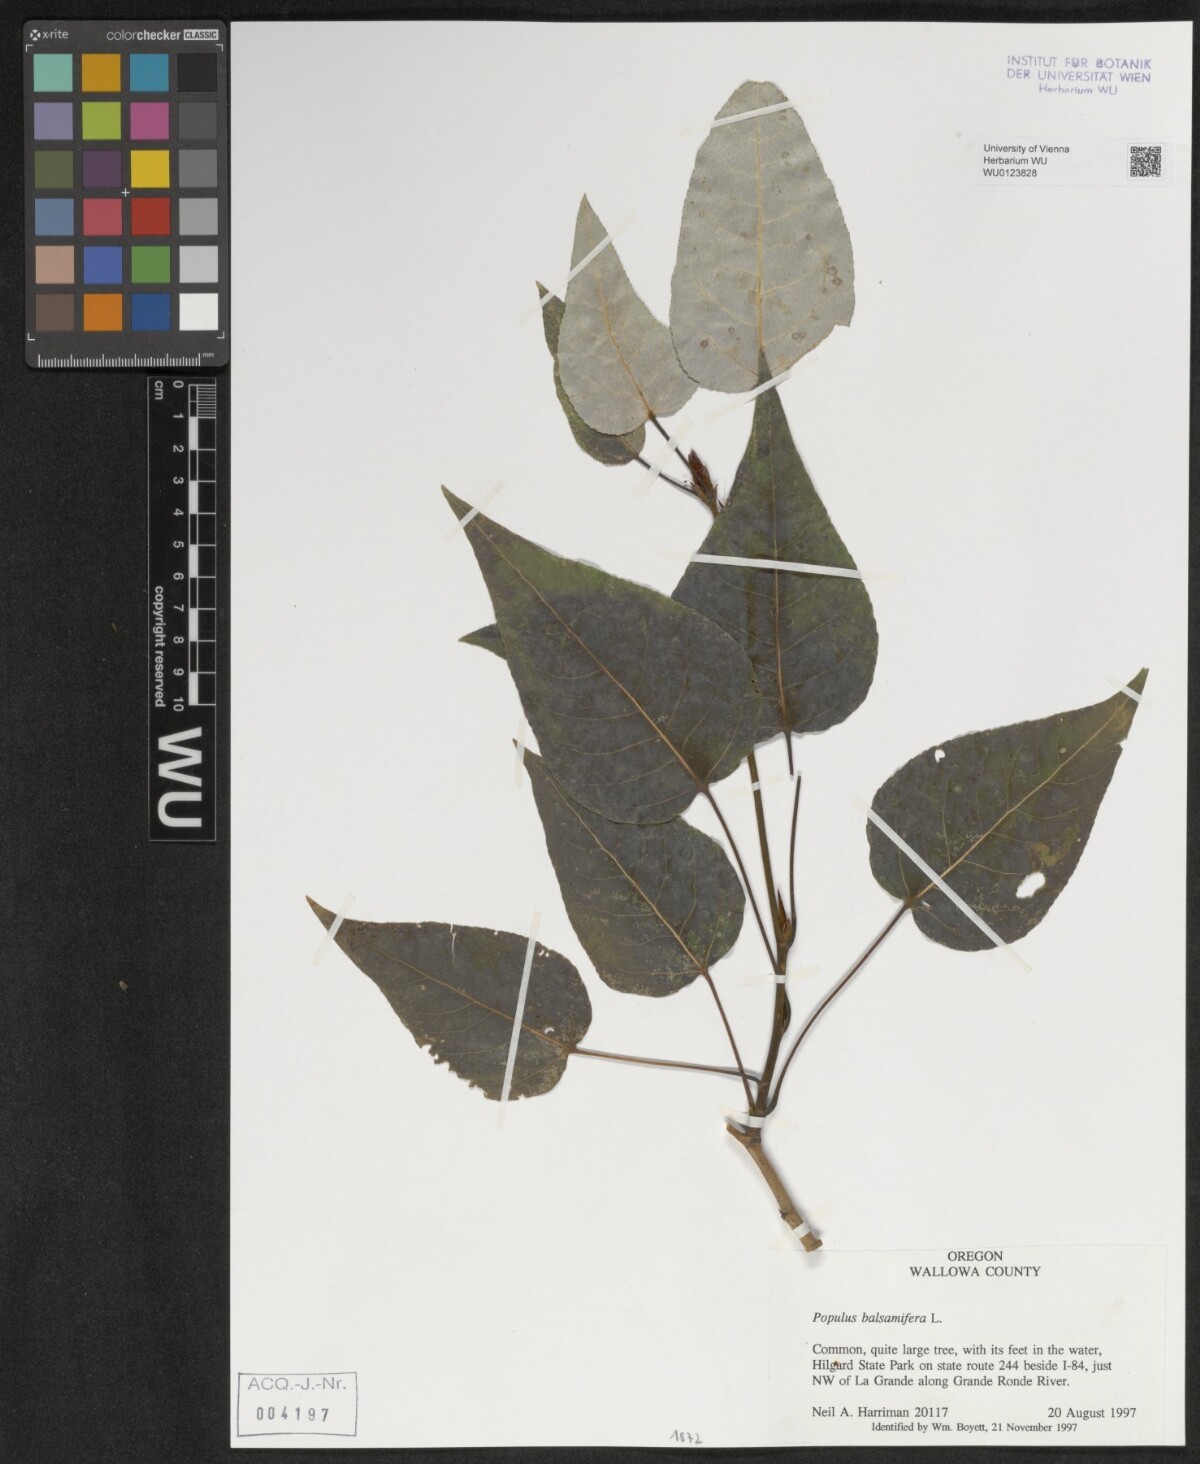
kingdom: Plantae
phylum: Tracheophyta
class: Magnoliopsida
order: Malpighiales
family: Salicaceae
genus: Populus
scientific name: Populus balsamifera
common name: Balsam poplar
